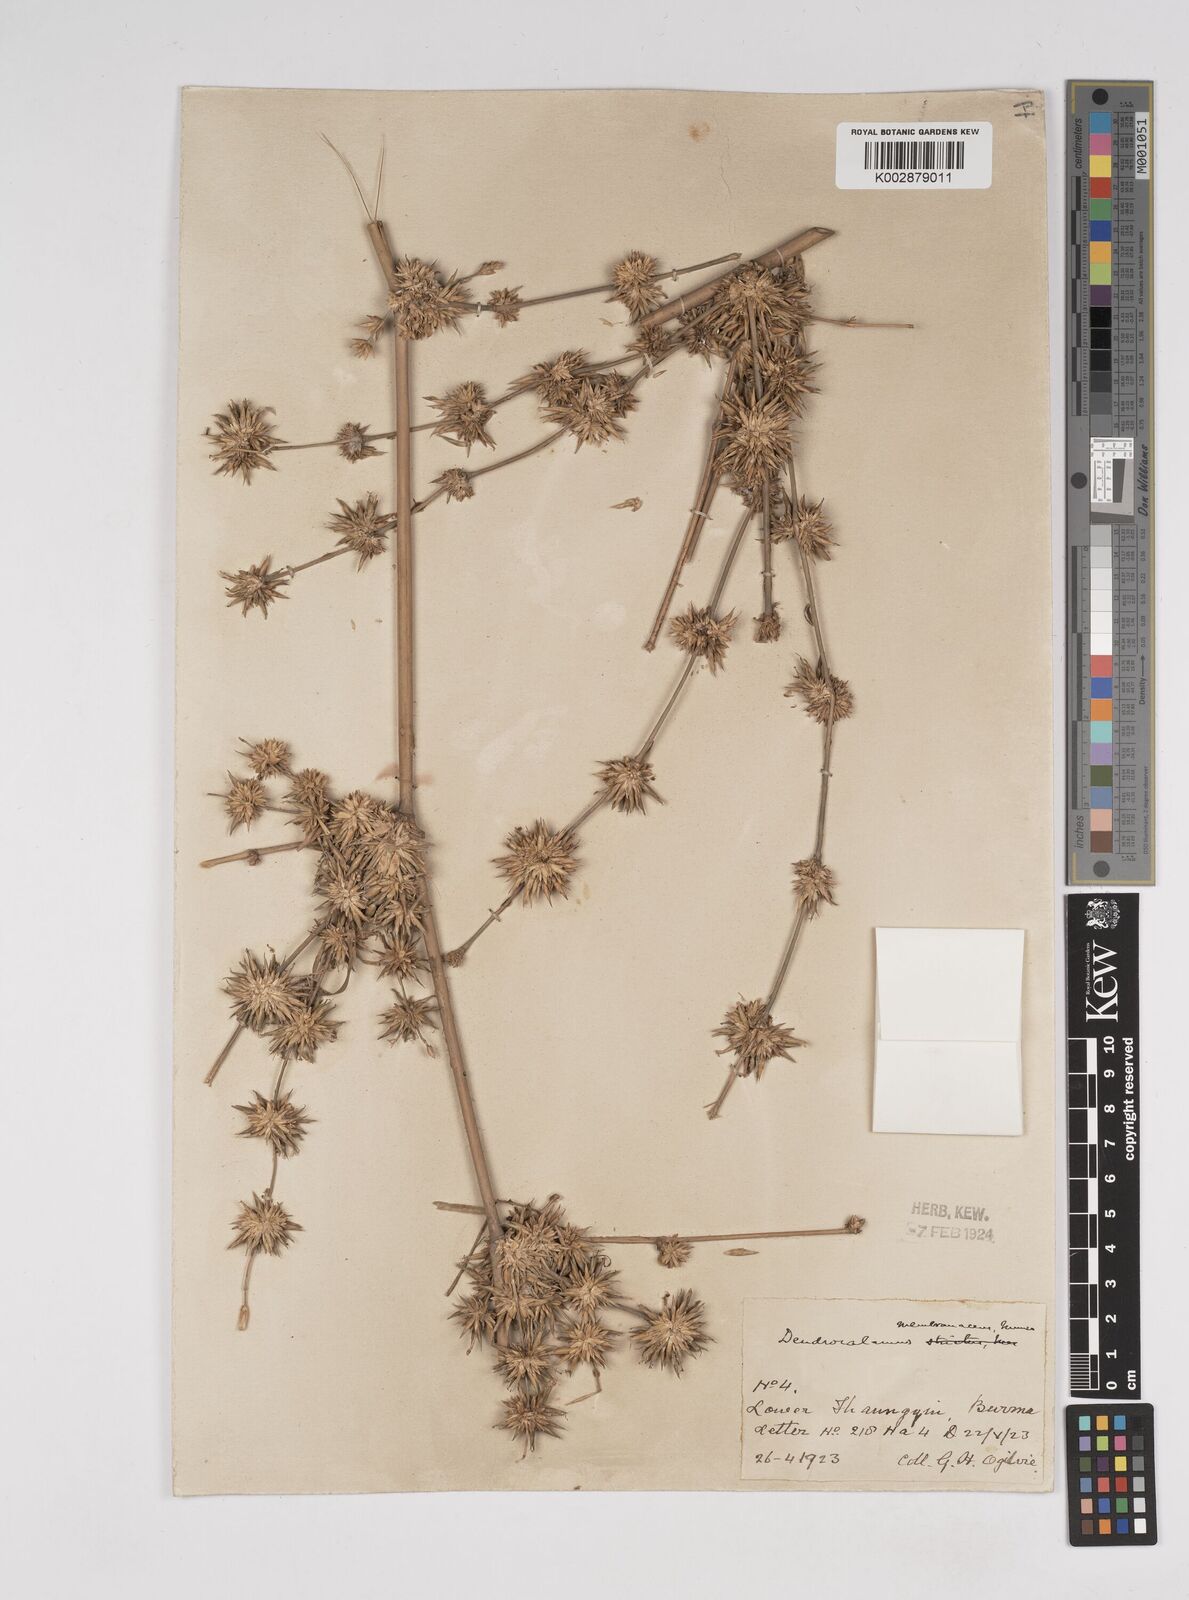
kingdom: Plantae
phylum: Tracheophyta
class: Liliopsida
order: Poales
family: Poaceae
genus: Dendrocalamus
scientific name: Dendrocalamus membranaceus
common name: White bamboo
